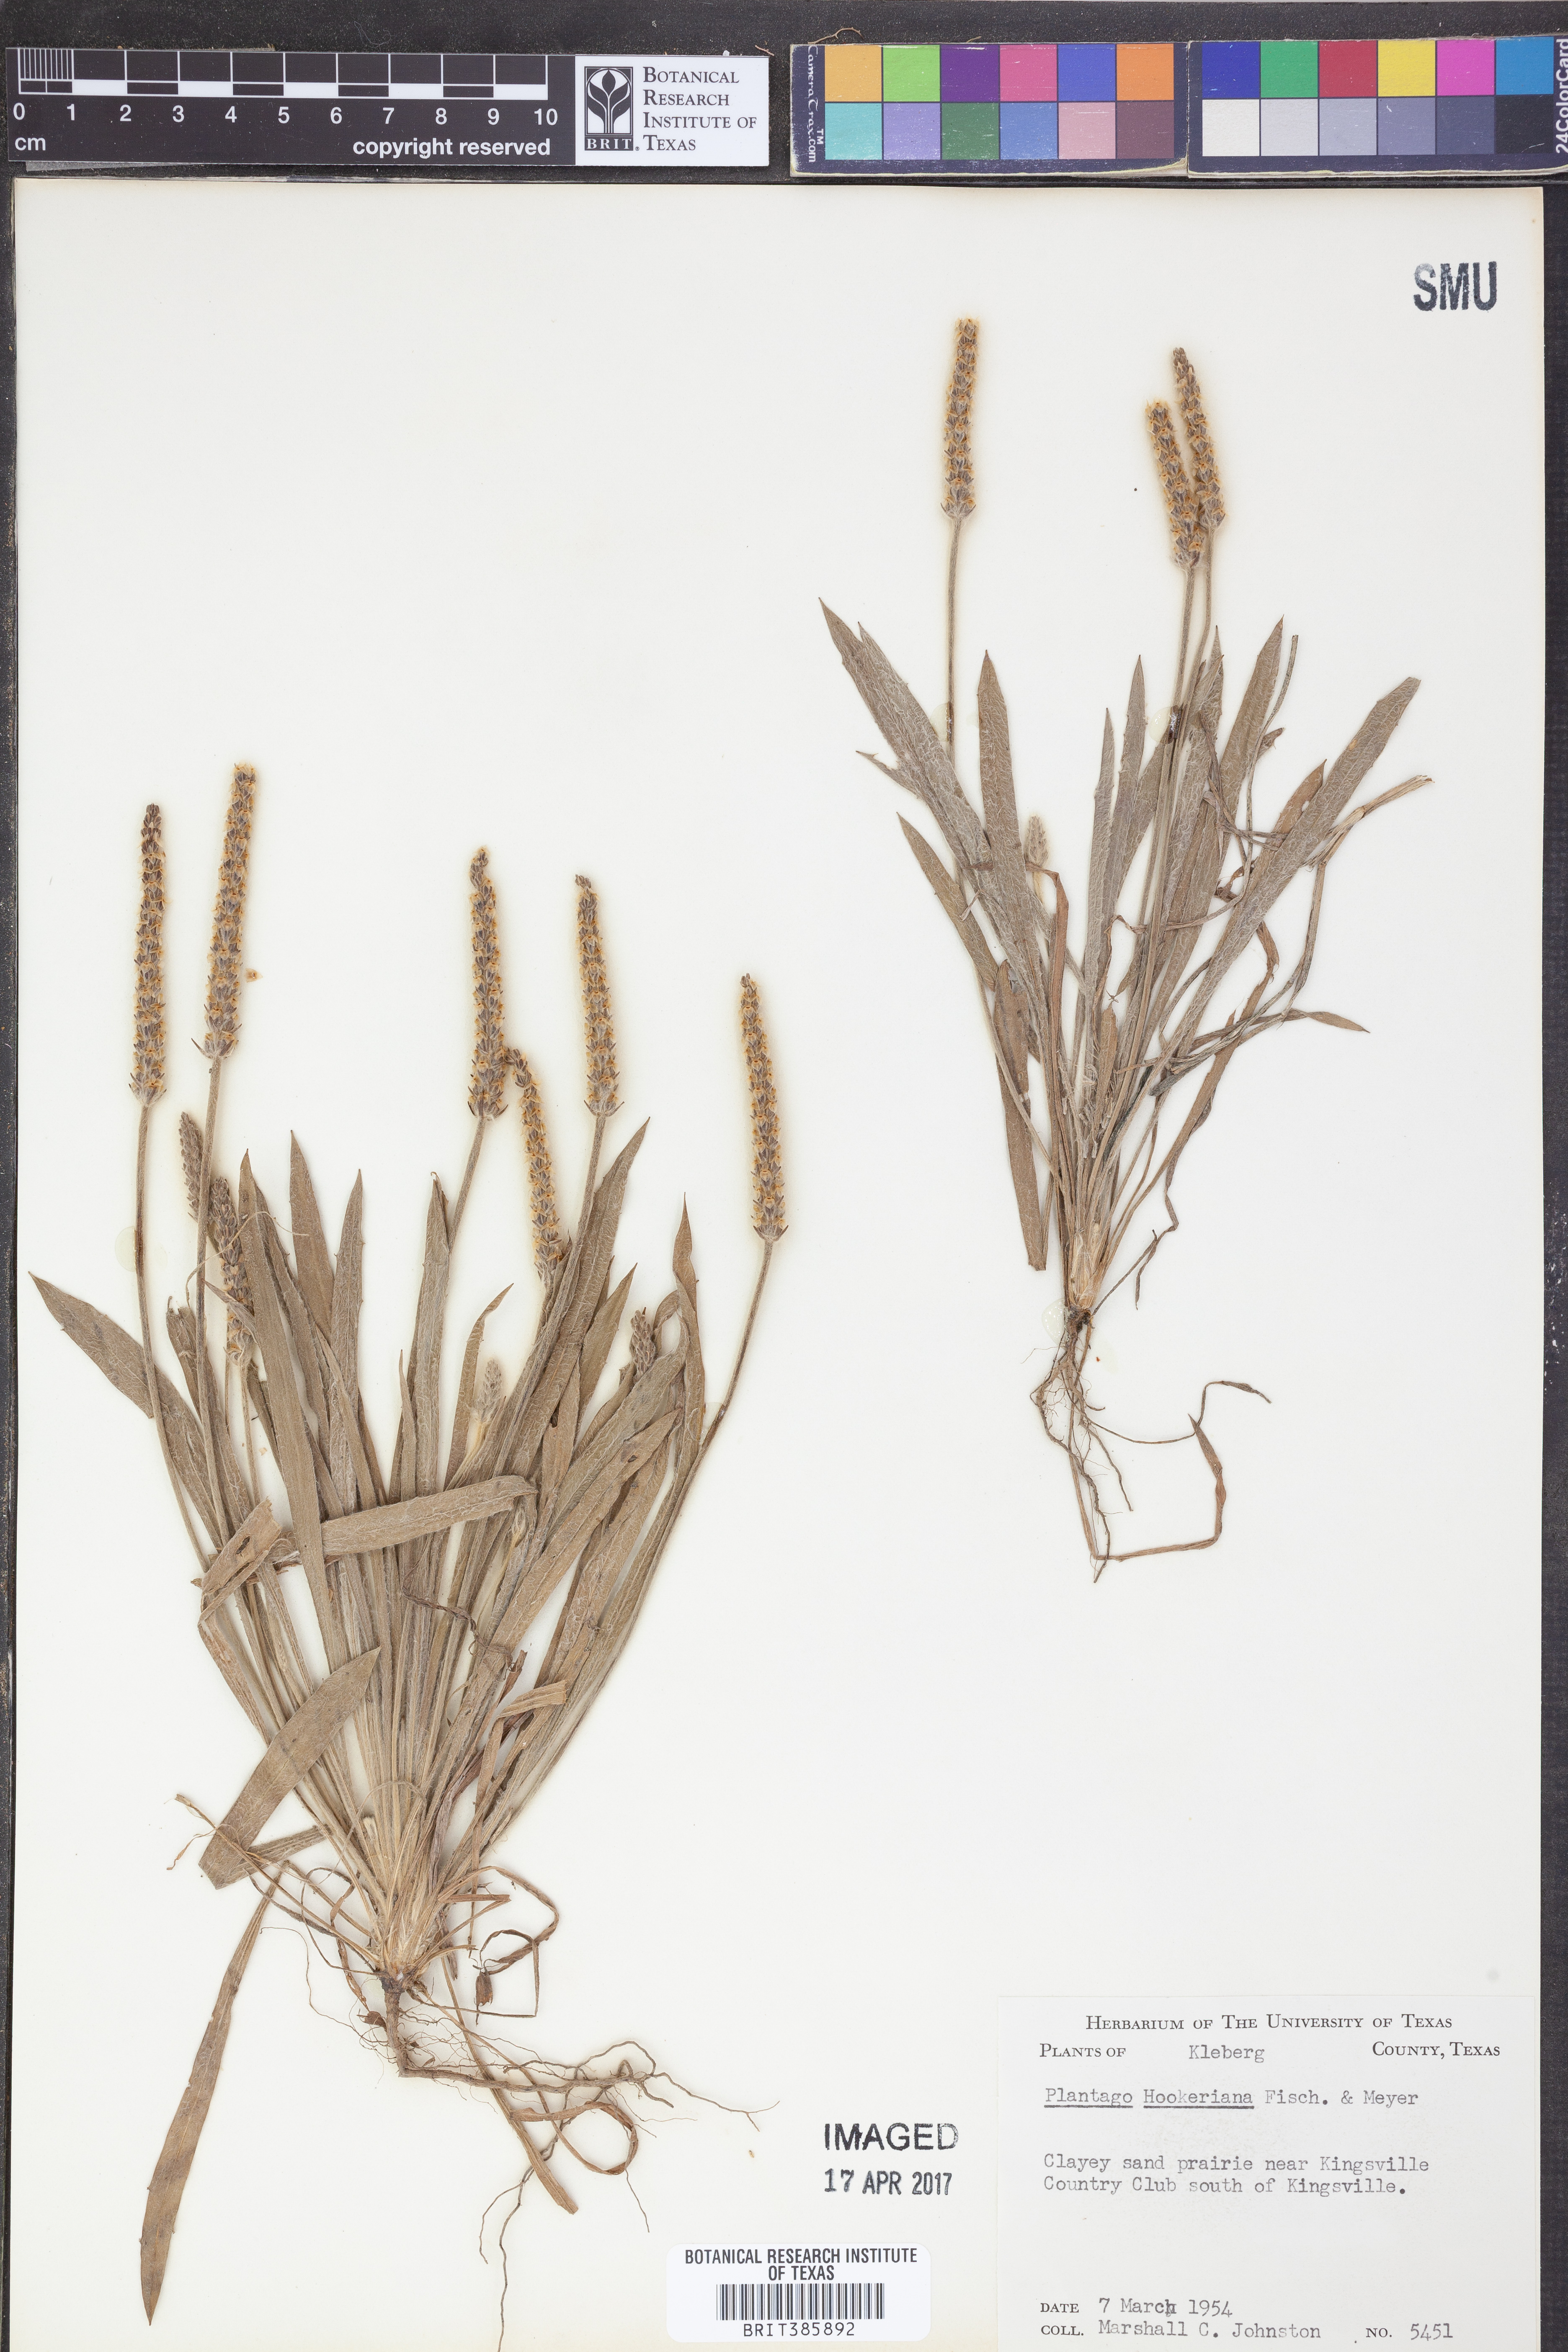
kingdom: Plantae
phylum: Tracheophyta
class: Magnoliopsida
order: Lamiales
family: Plantaginaceae
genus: Plantago
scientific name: Plantago hookeriana
